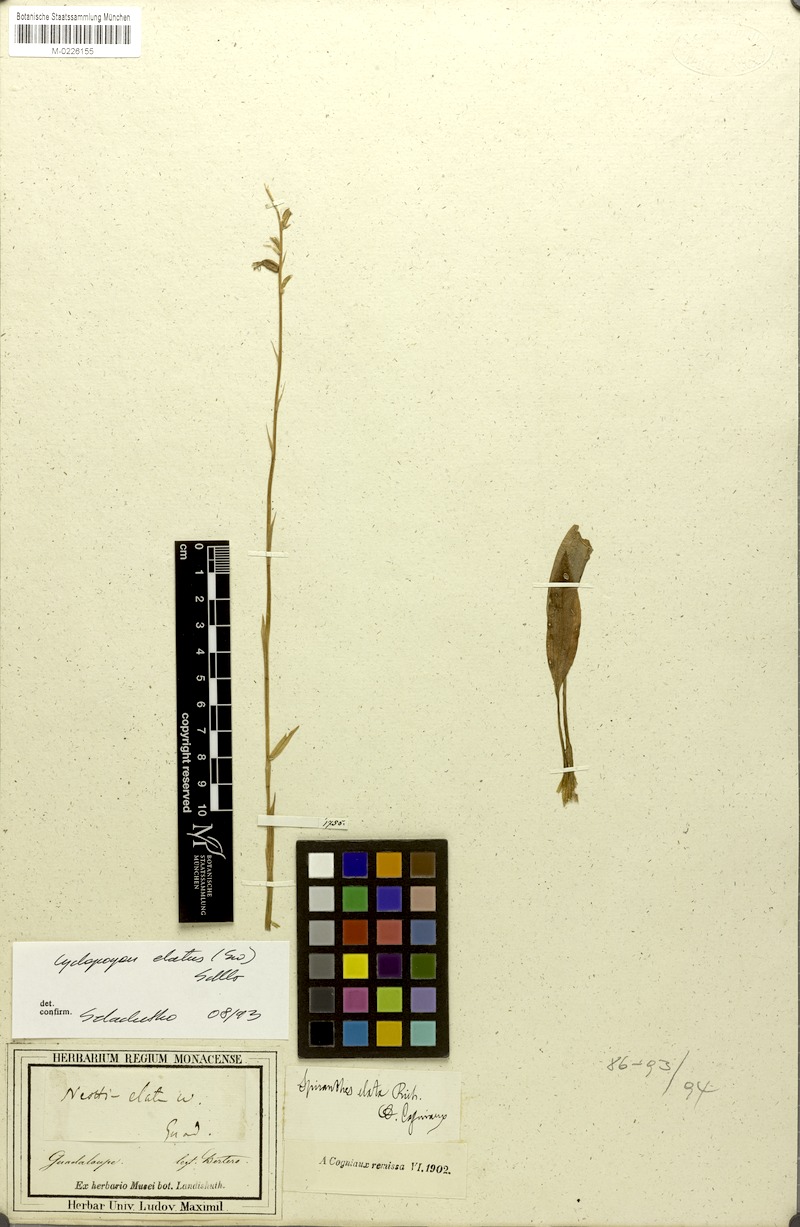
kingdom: Plantae
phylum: Tracheophyta
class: Liliopsida
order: Asparagales
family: Orchidaceae
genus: Cyclopogon
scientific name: Cyclopogon elatus
